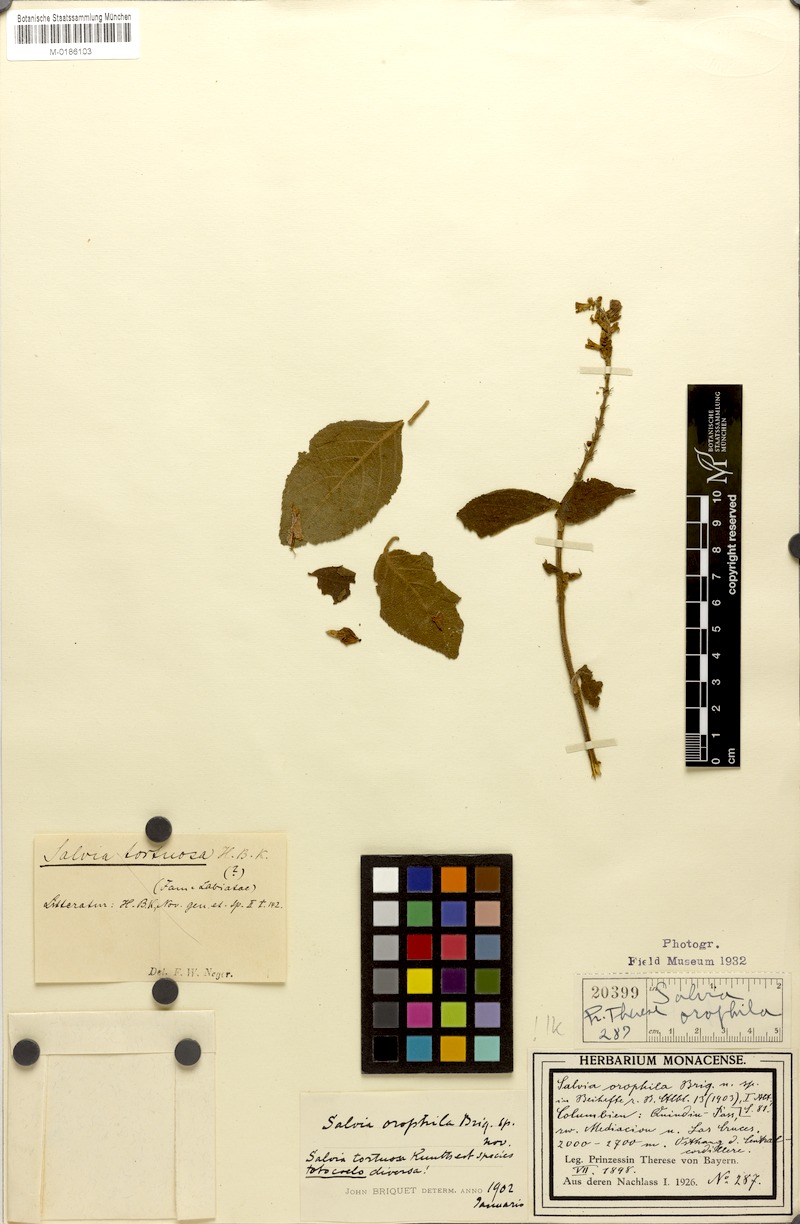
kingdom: Plantae
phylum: Tracheophyta
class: Magnoliopsida
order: Lamiales
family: Lamiaceae
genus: Salvia
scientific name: Salvia rufula
